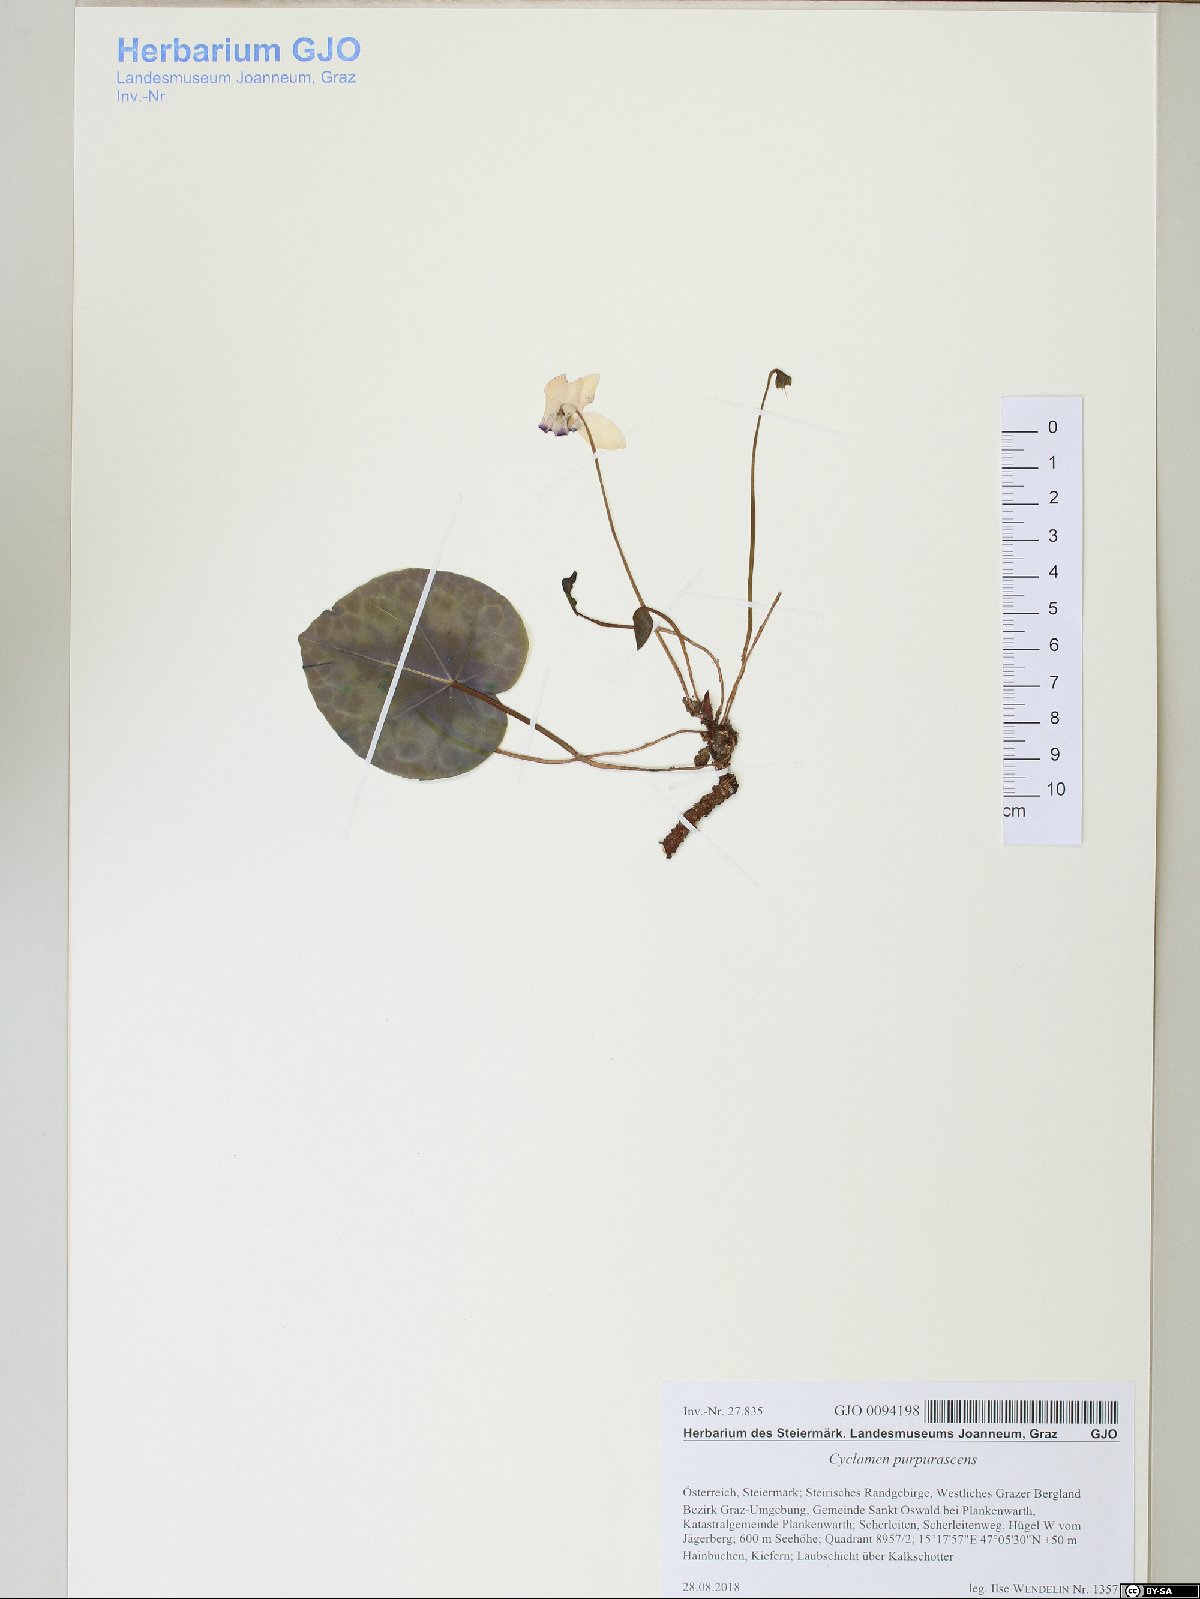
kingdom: Plantae
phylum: Tracheophyta
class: Magnoliopsida
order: Ericales
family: Primulaceae
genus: Cyclamen
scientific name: Cyclamen purpurascens
